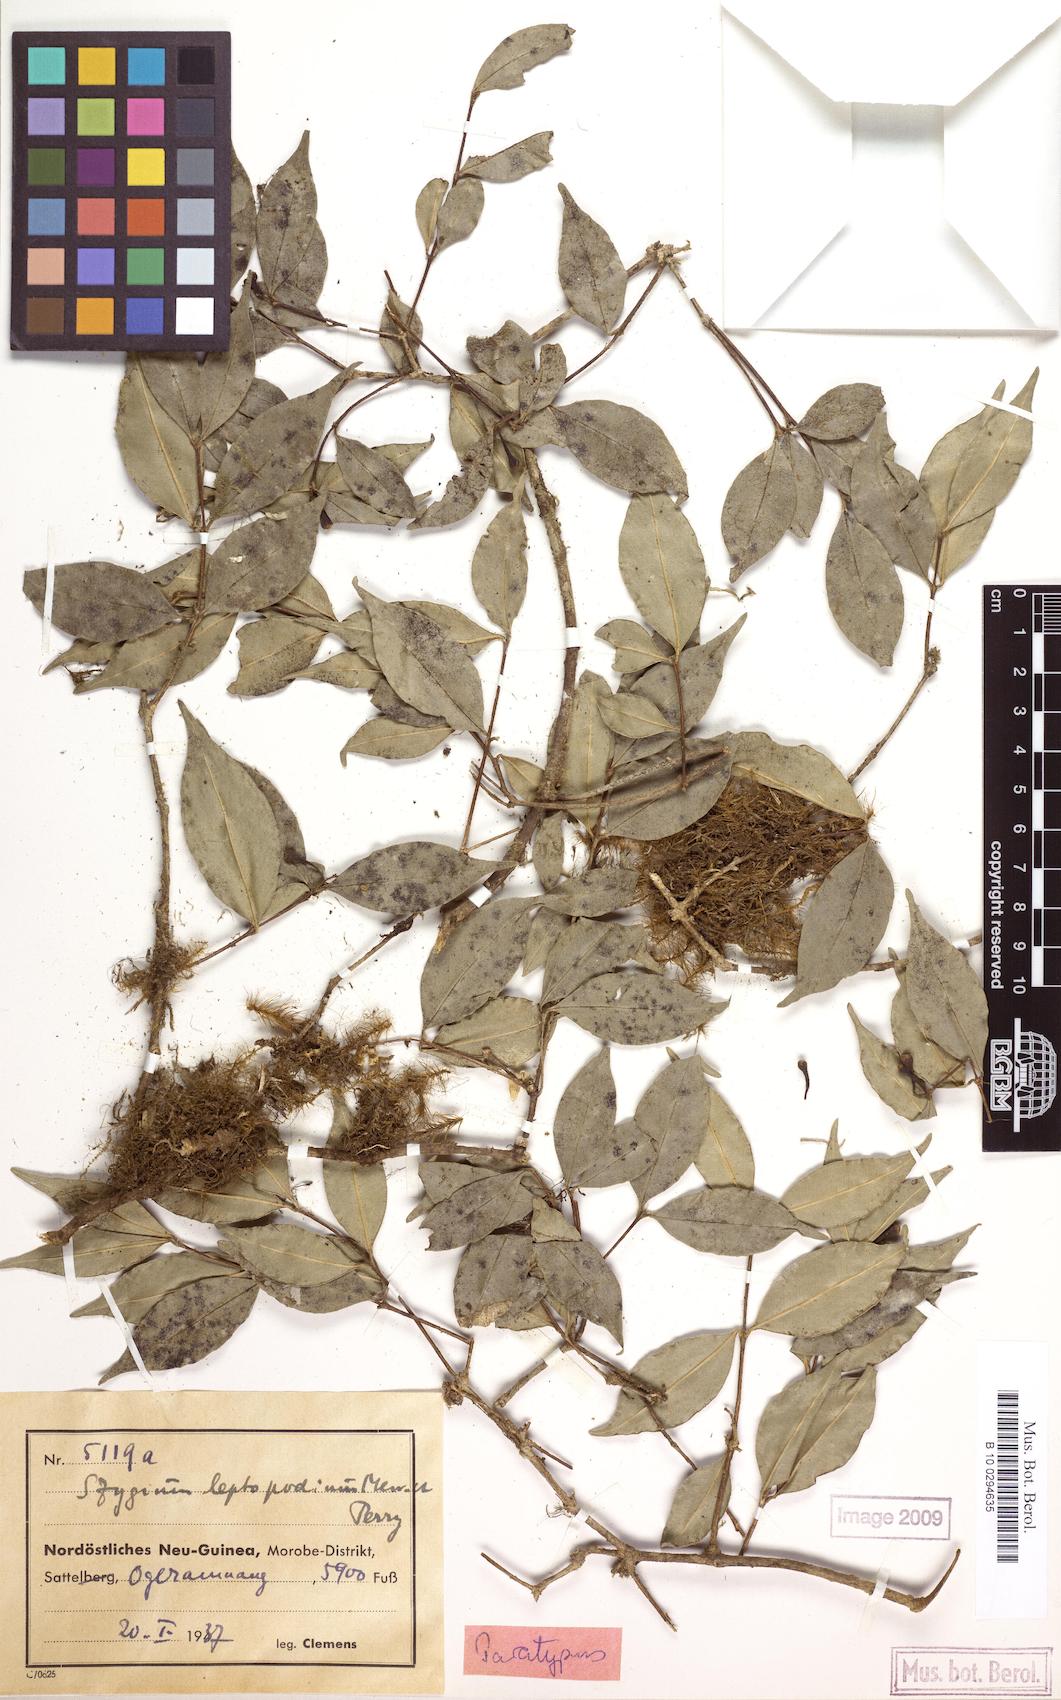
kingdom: Plantae
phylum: Tracheophyta
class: Magnoliopsida
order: Myrtales
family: Myrtaceae
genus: Syzygium
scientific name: Syzygium leptopodium
